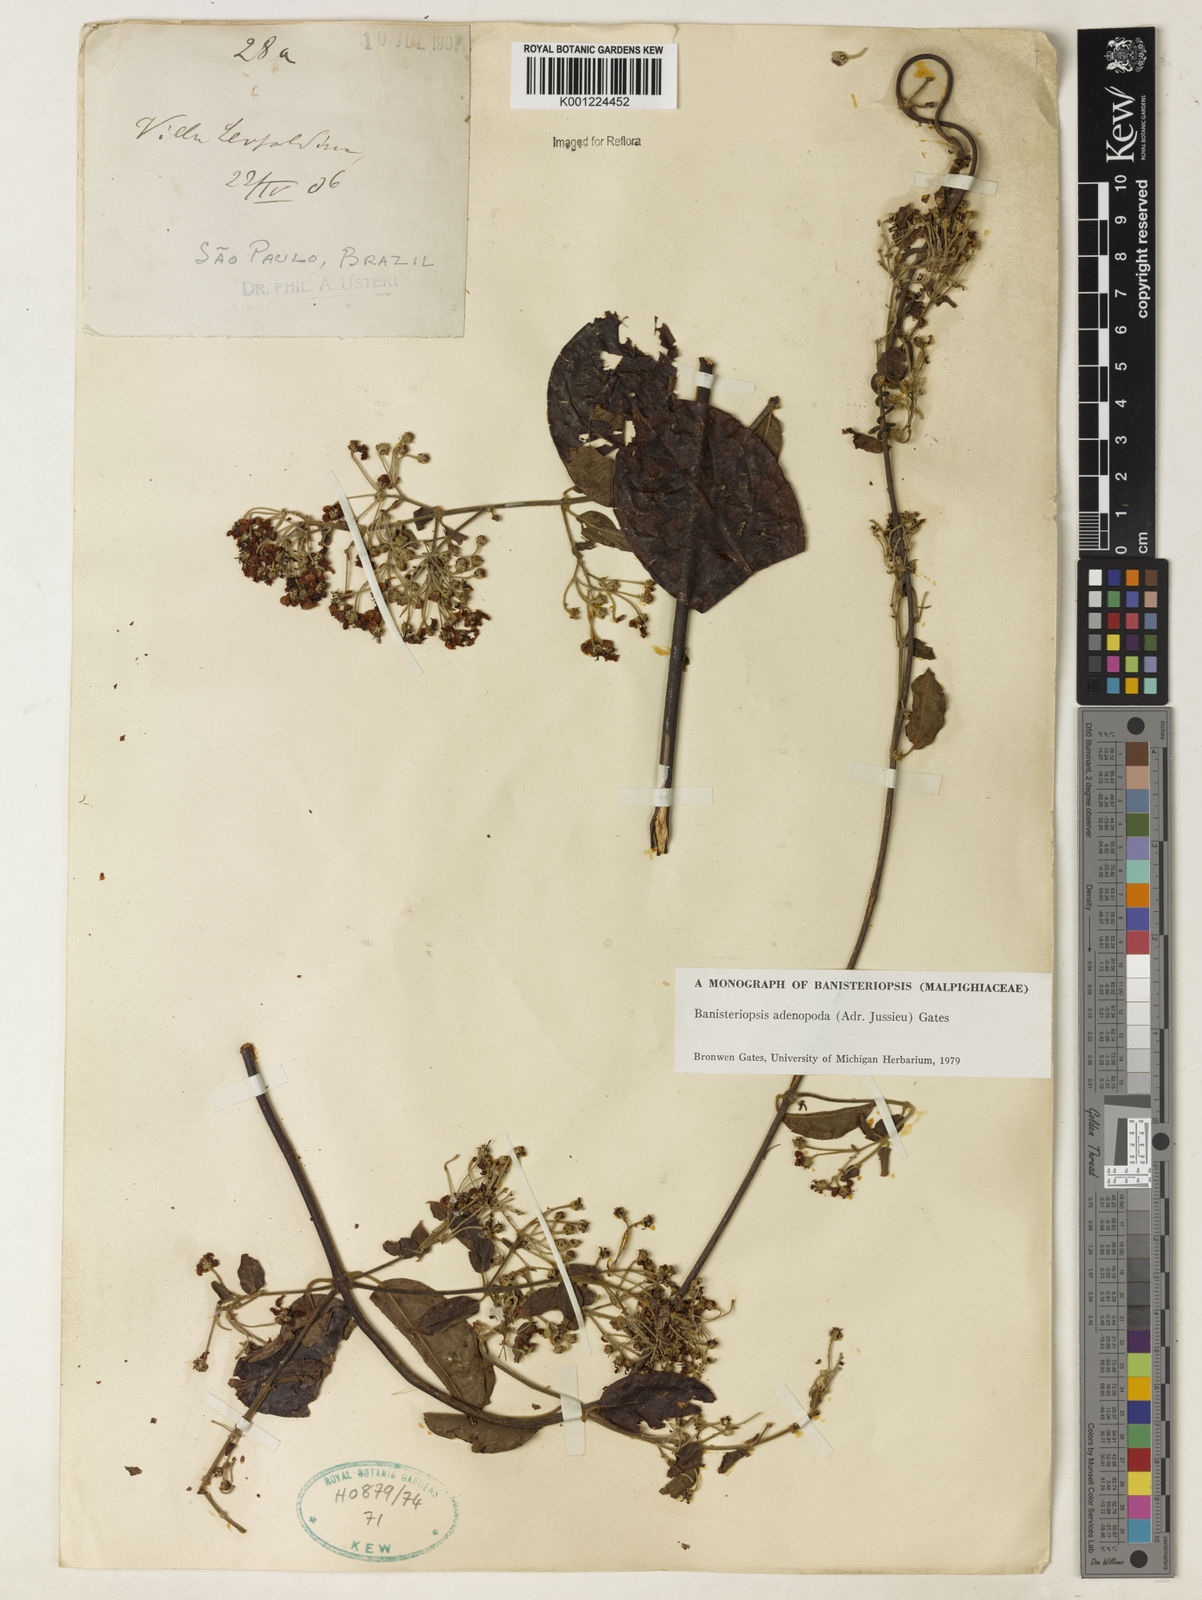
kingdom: Plantae
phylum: Tracheophyta
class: Magnoliopsida
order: Malpighiales
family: Malpighiaceae
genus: Banisteriopsis
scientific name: Banisteriopsis adenopoda
